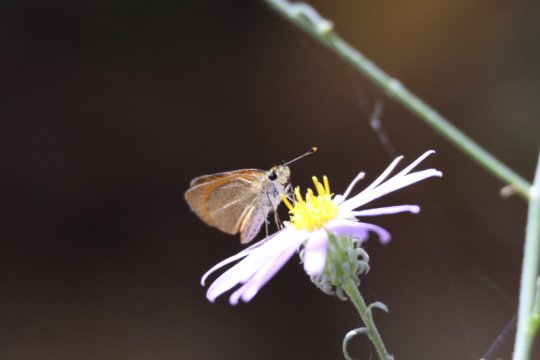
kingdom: Animalia
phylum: Arthropoda
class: Insecta
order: Lepidoptera
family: Hesperiidae
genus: Ancyloxypha
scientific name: Ancyloxypha arene
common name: Tropical Least Skipper
